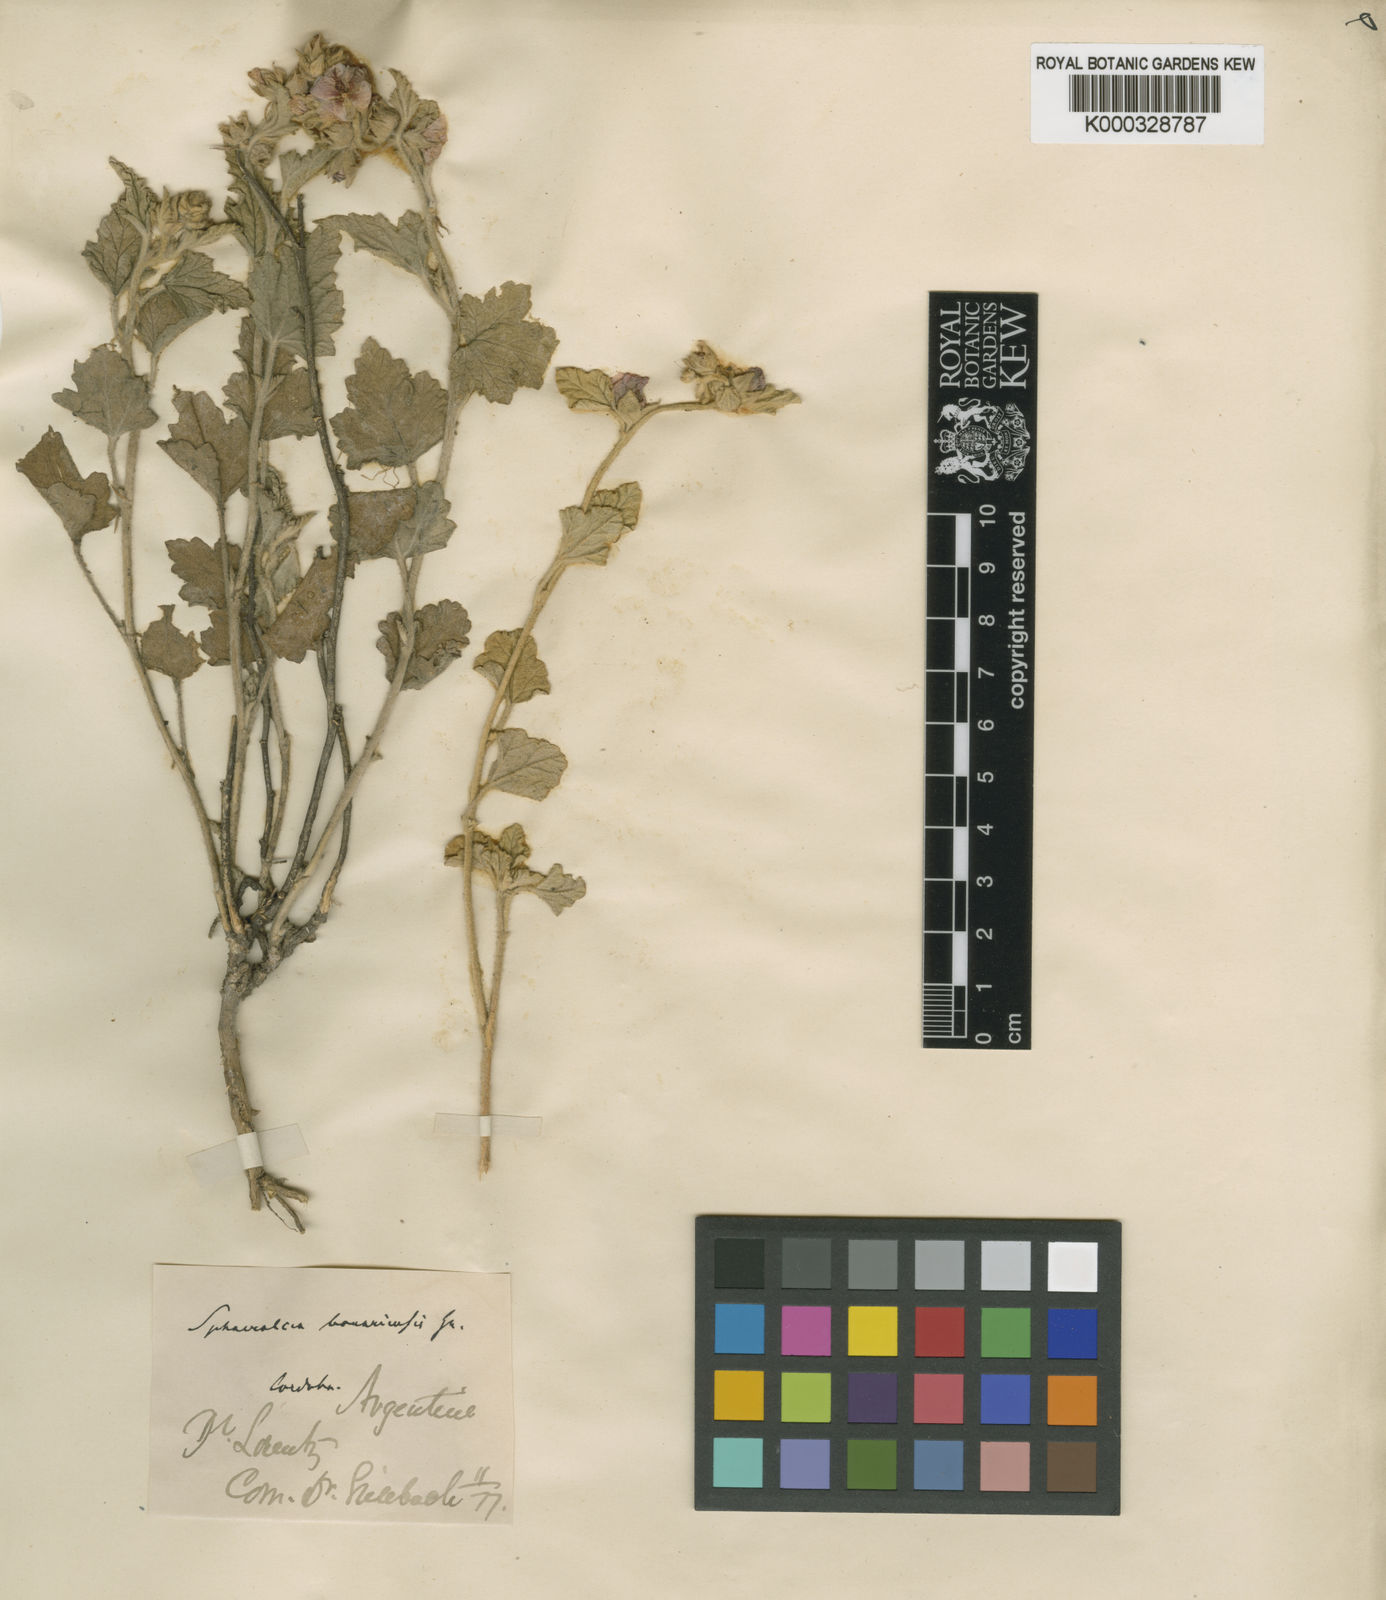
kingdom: Plantae
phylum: Tracheophyta
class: Magnoliopsida
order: Malvales
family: Malvaceae
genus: Sphaeralcea
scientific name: Sphaeralcea bonariensis
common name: Latin globemallow
